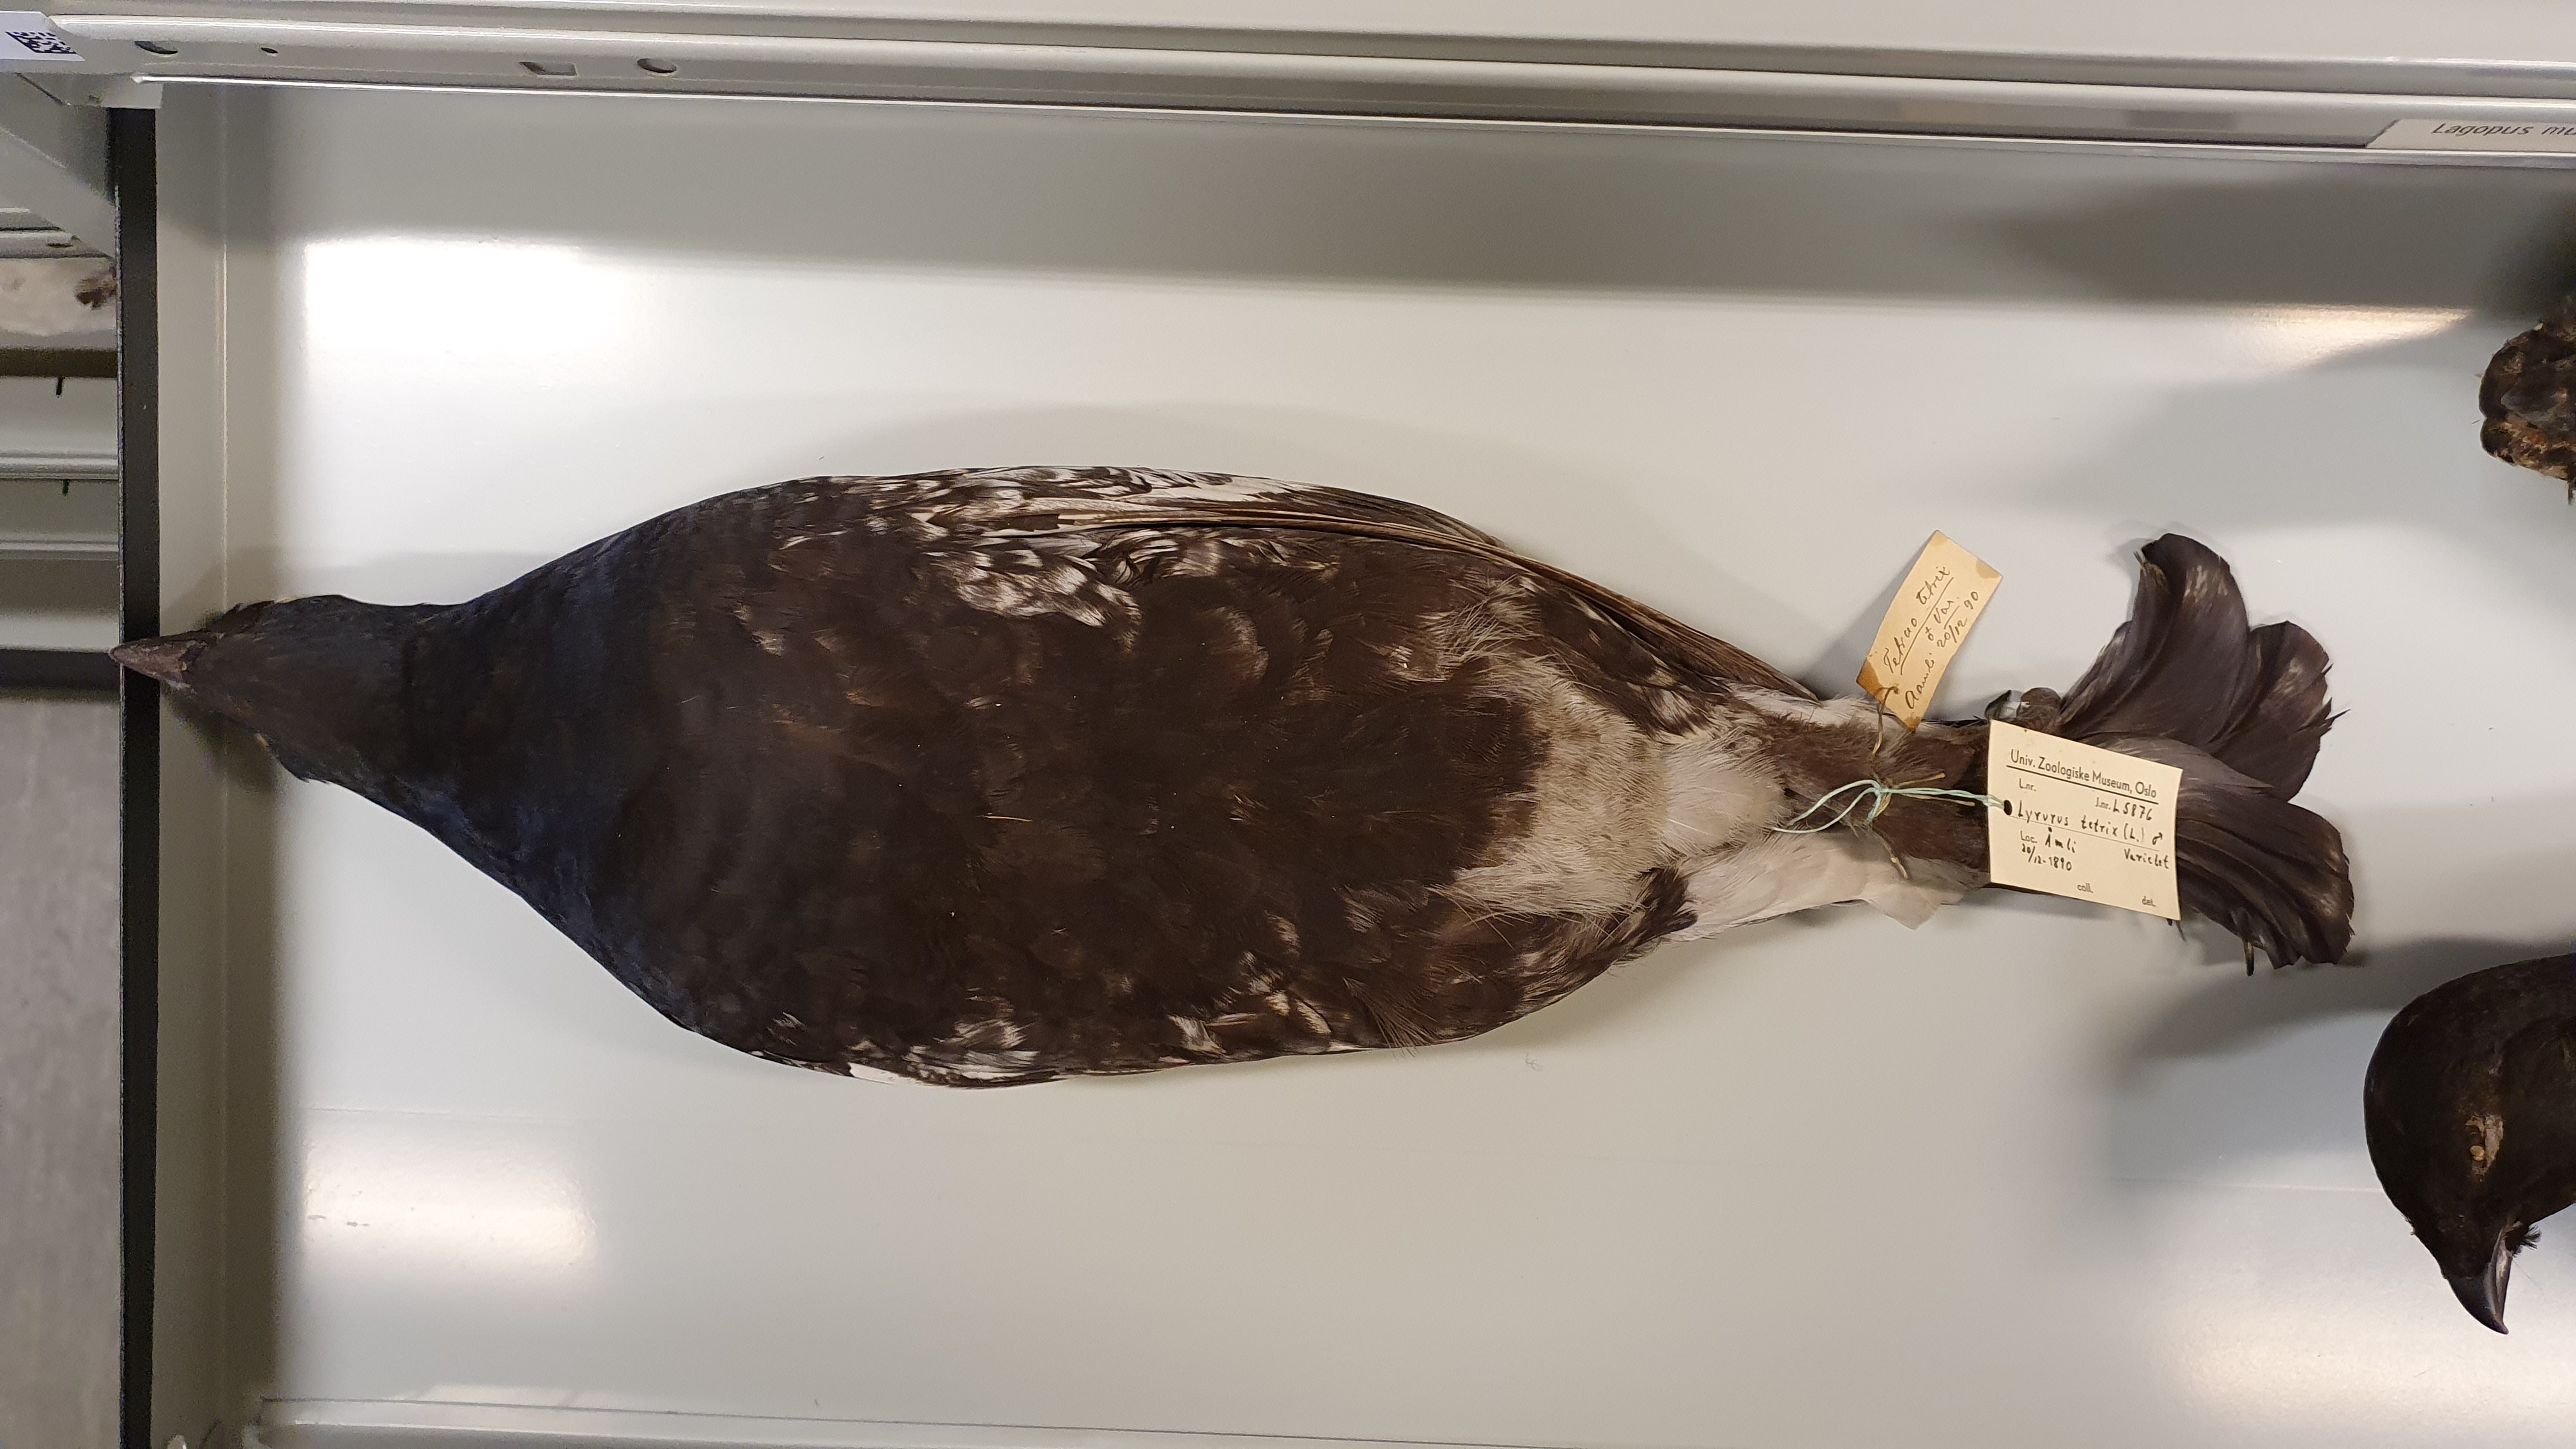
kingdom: Animalia
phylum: Chordata
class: Aves
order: Galliformes
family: Phasianidae
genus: Lyrurus
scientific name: Lyrurus tetrix
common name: Black grouse
